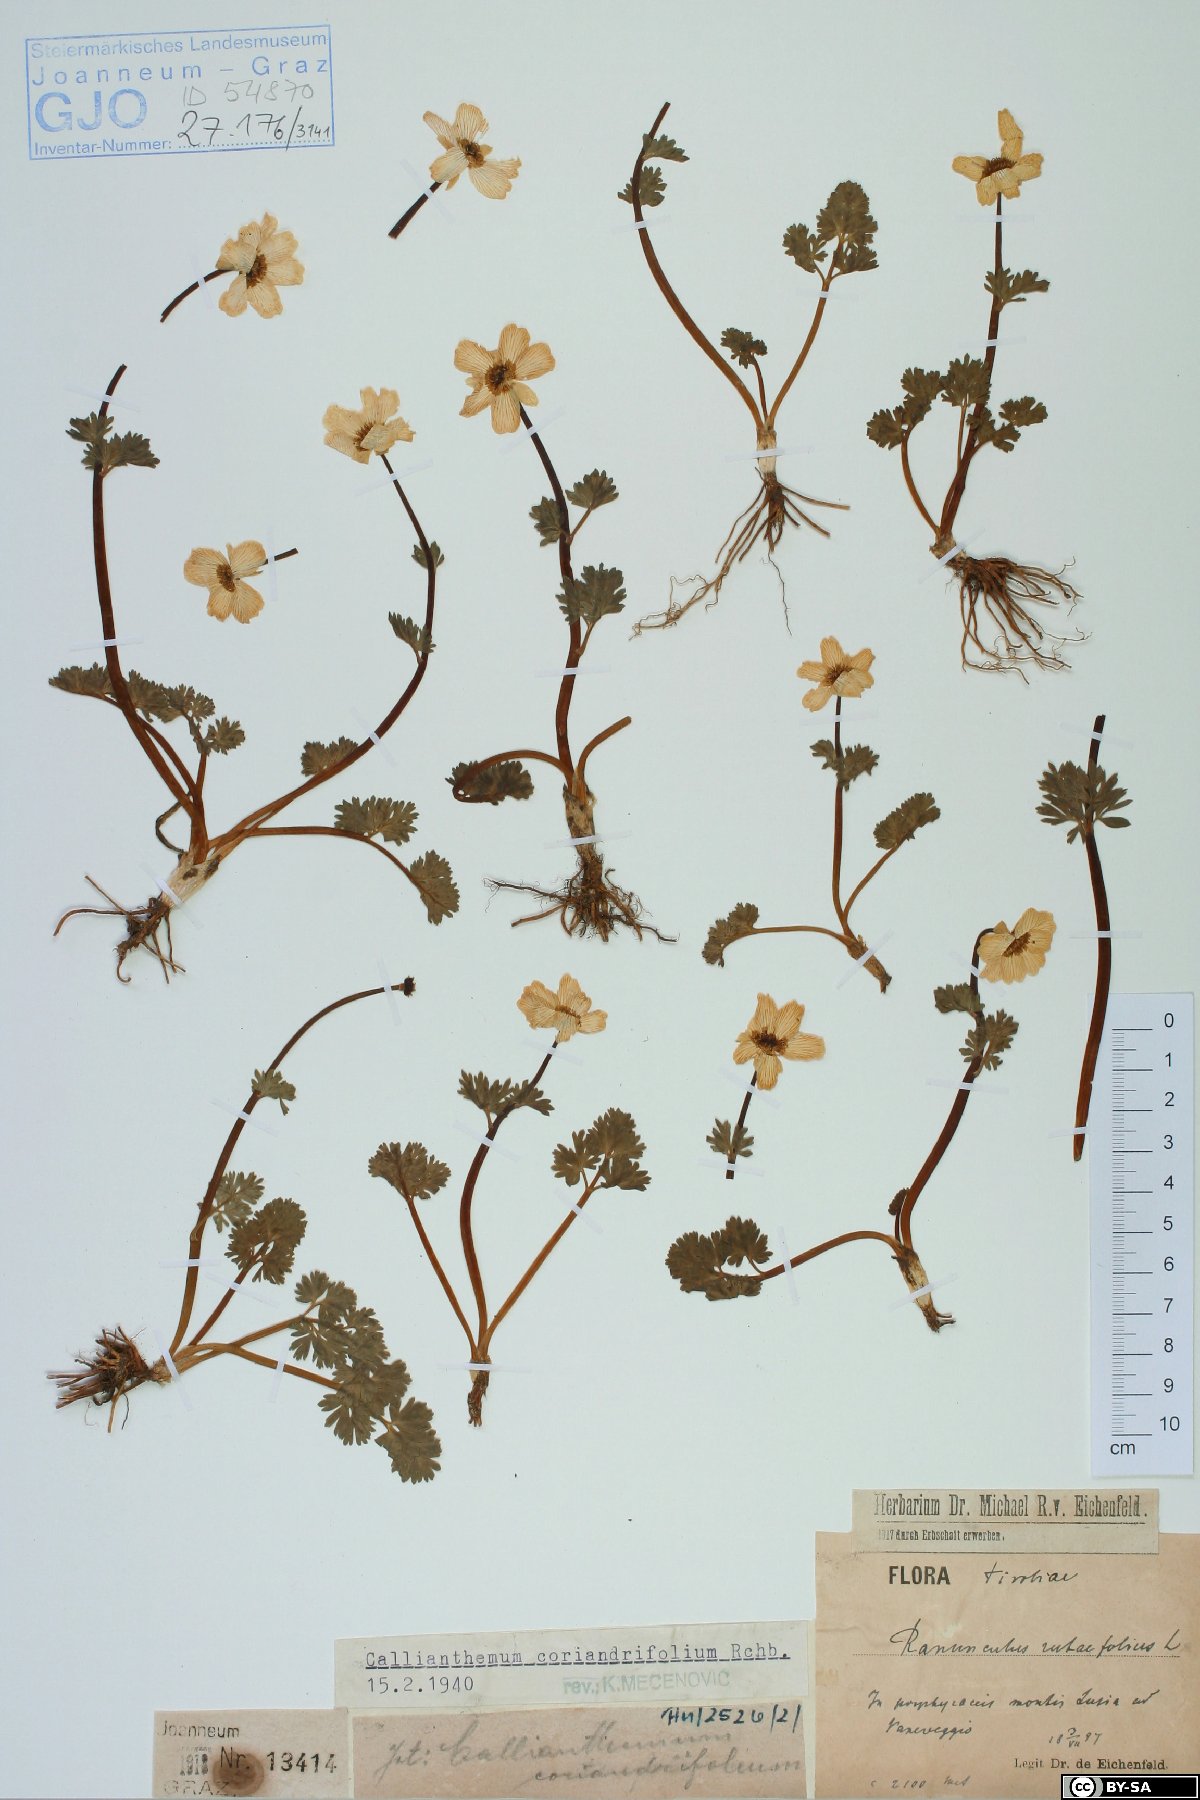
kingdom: Plantae
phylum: Tracheophyta
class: Magnoliopsida
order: Ranunculales
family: Ranunculaceae
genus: Callianthemum
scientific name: Callianthemum coriandrifolium
